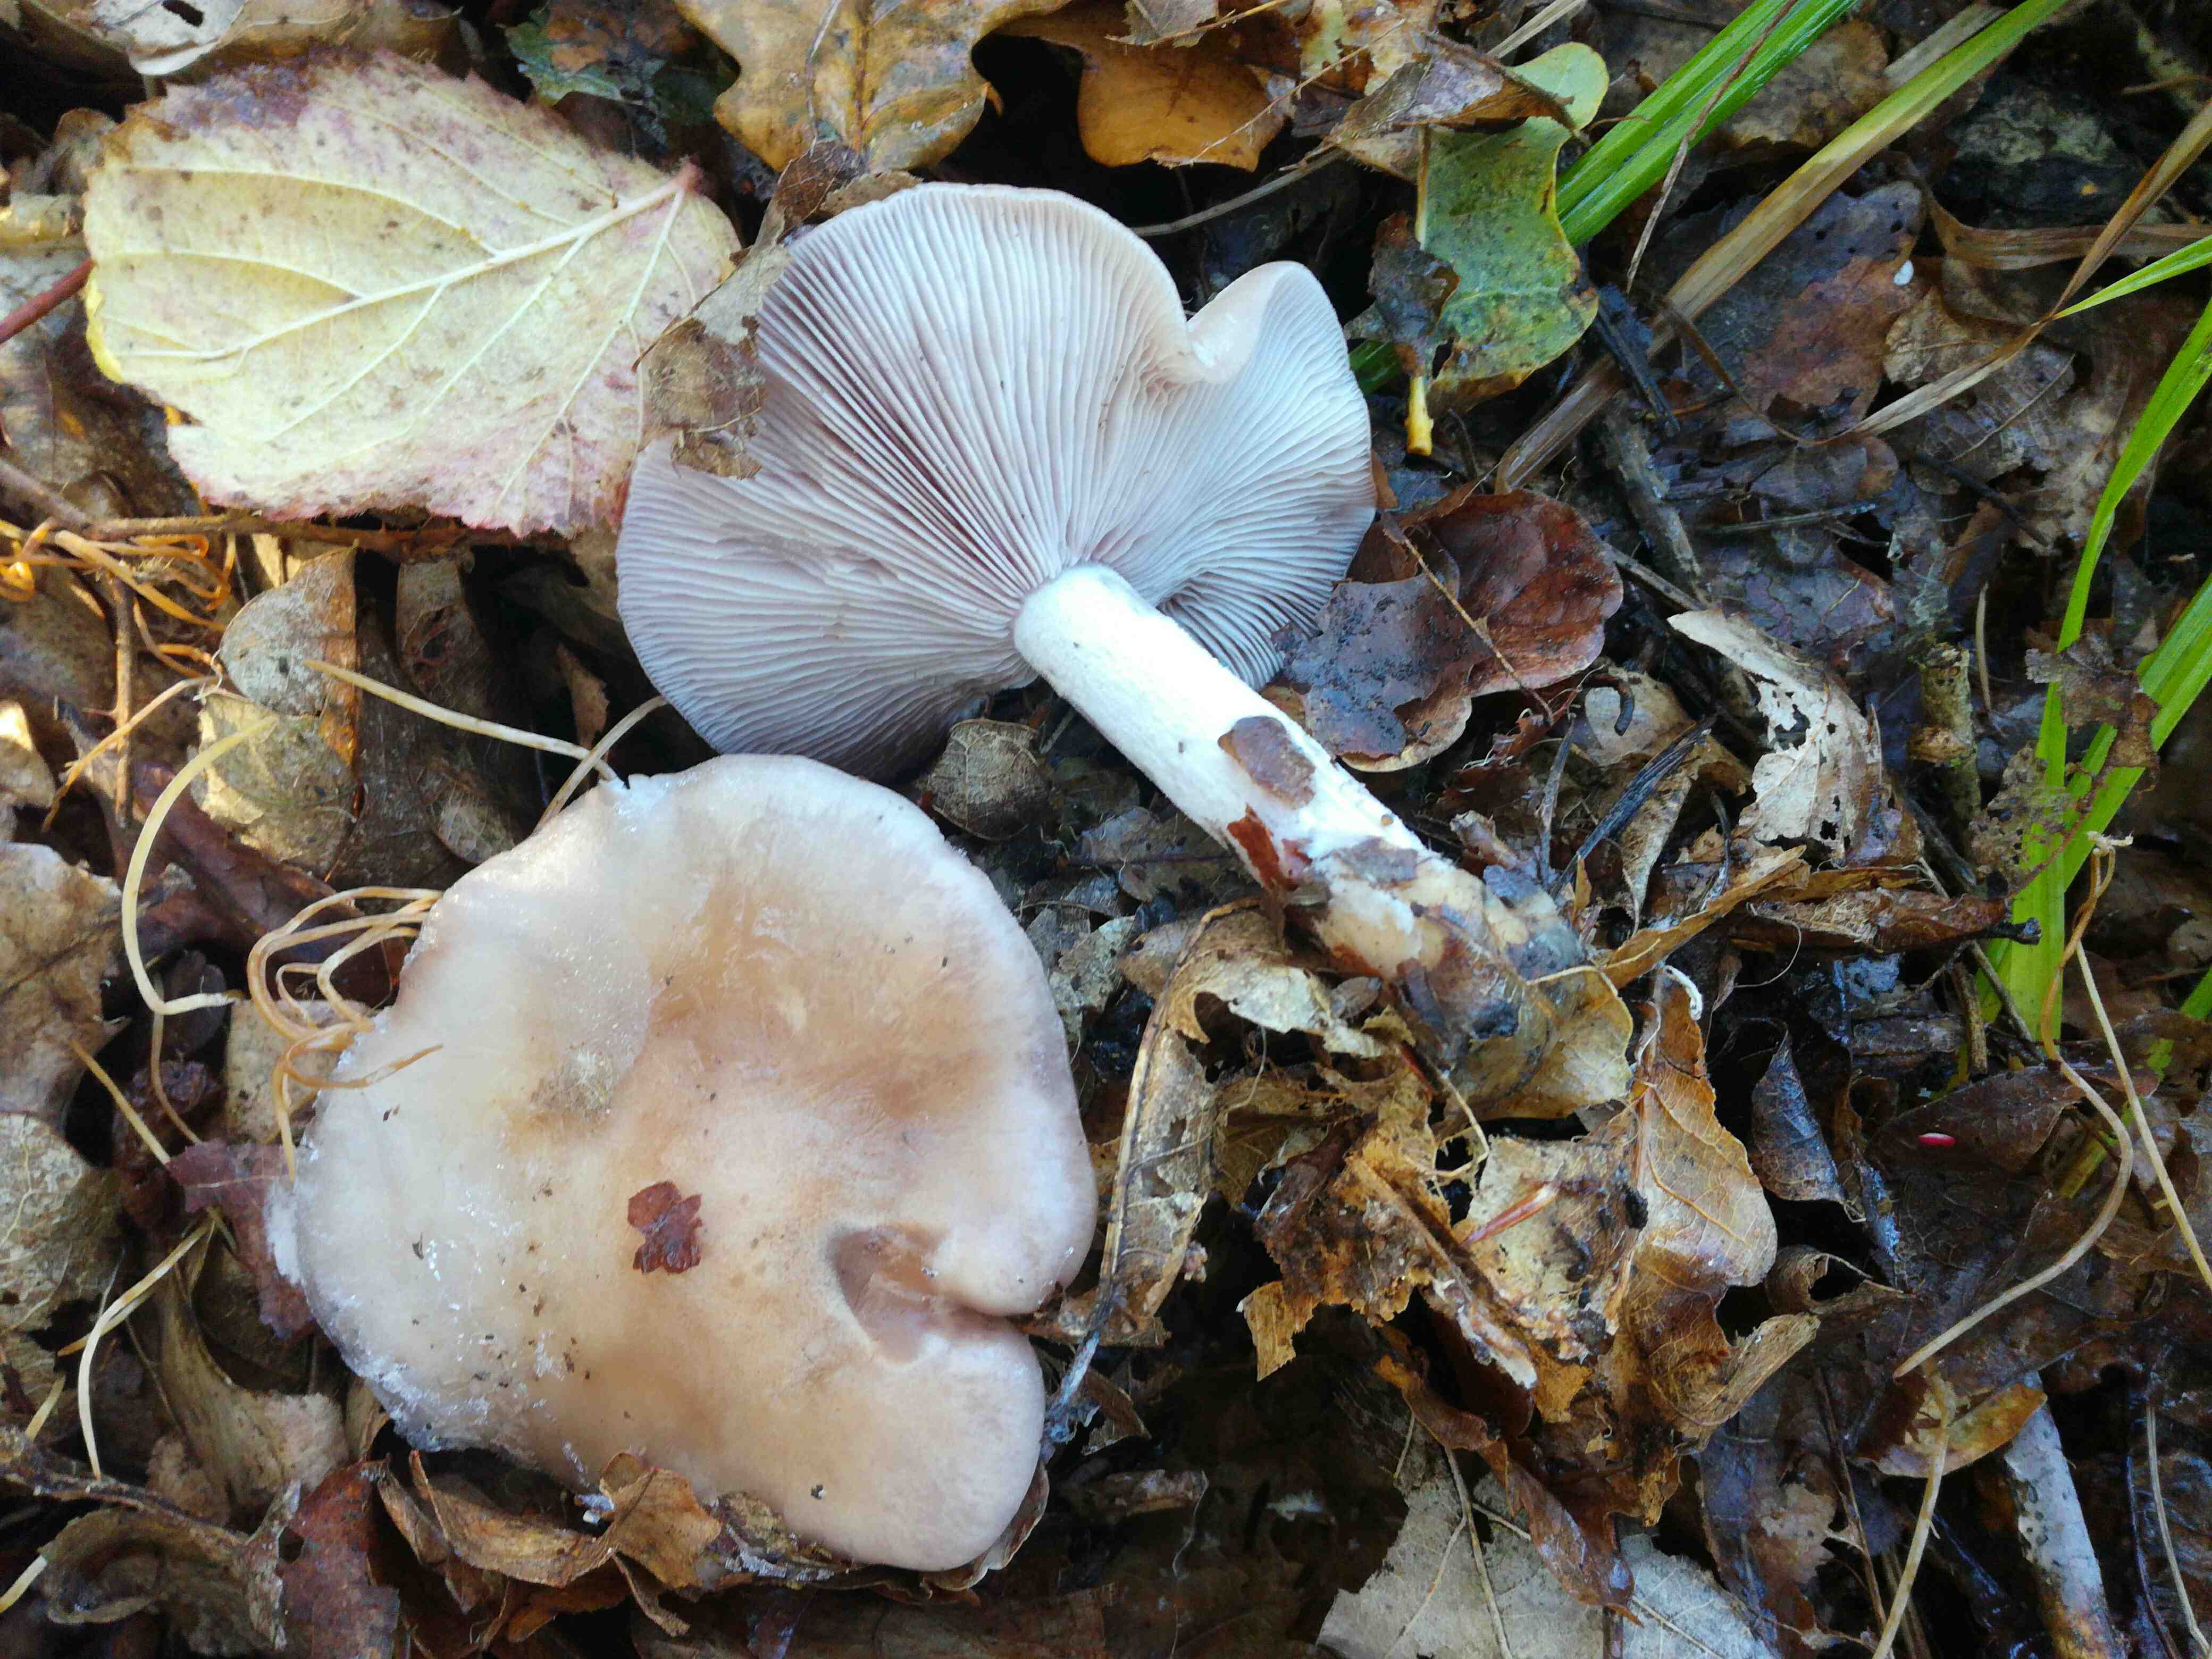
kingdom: Fungi
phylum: Basidiomycota
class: Agaricomycetes
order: Agaricales
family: Tricholomataceae
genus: Lepista
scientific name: Lepista nuda
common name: violet hekseringshat
